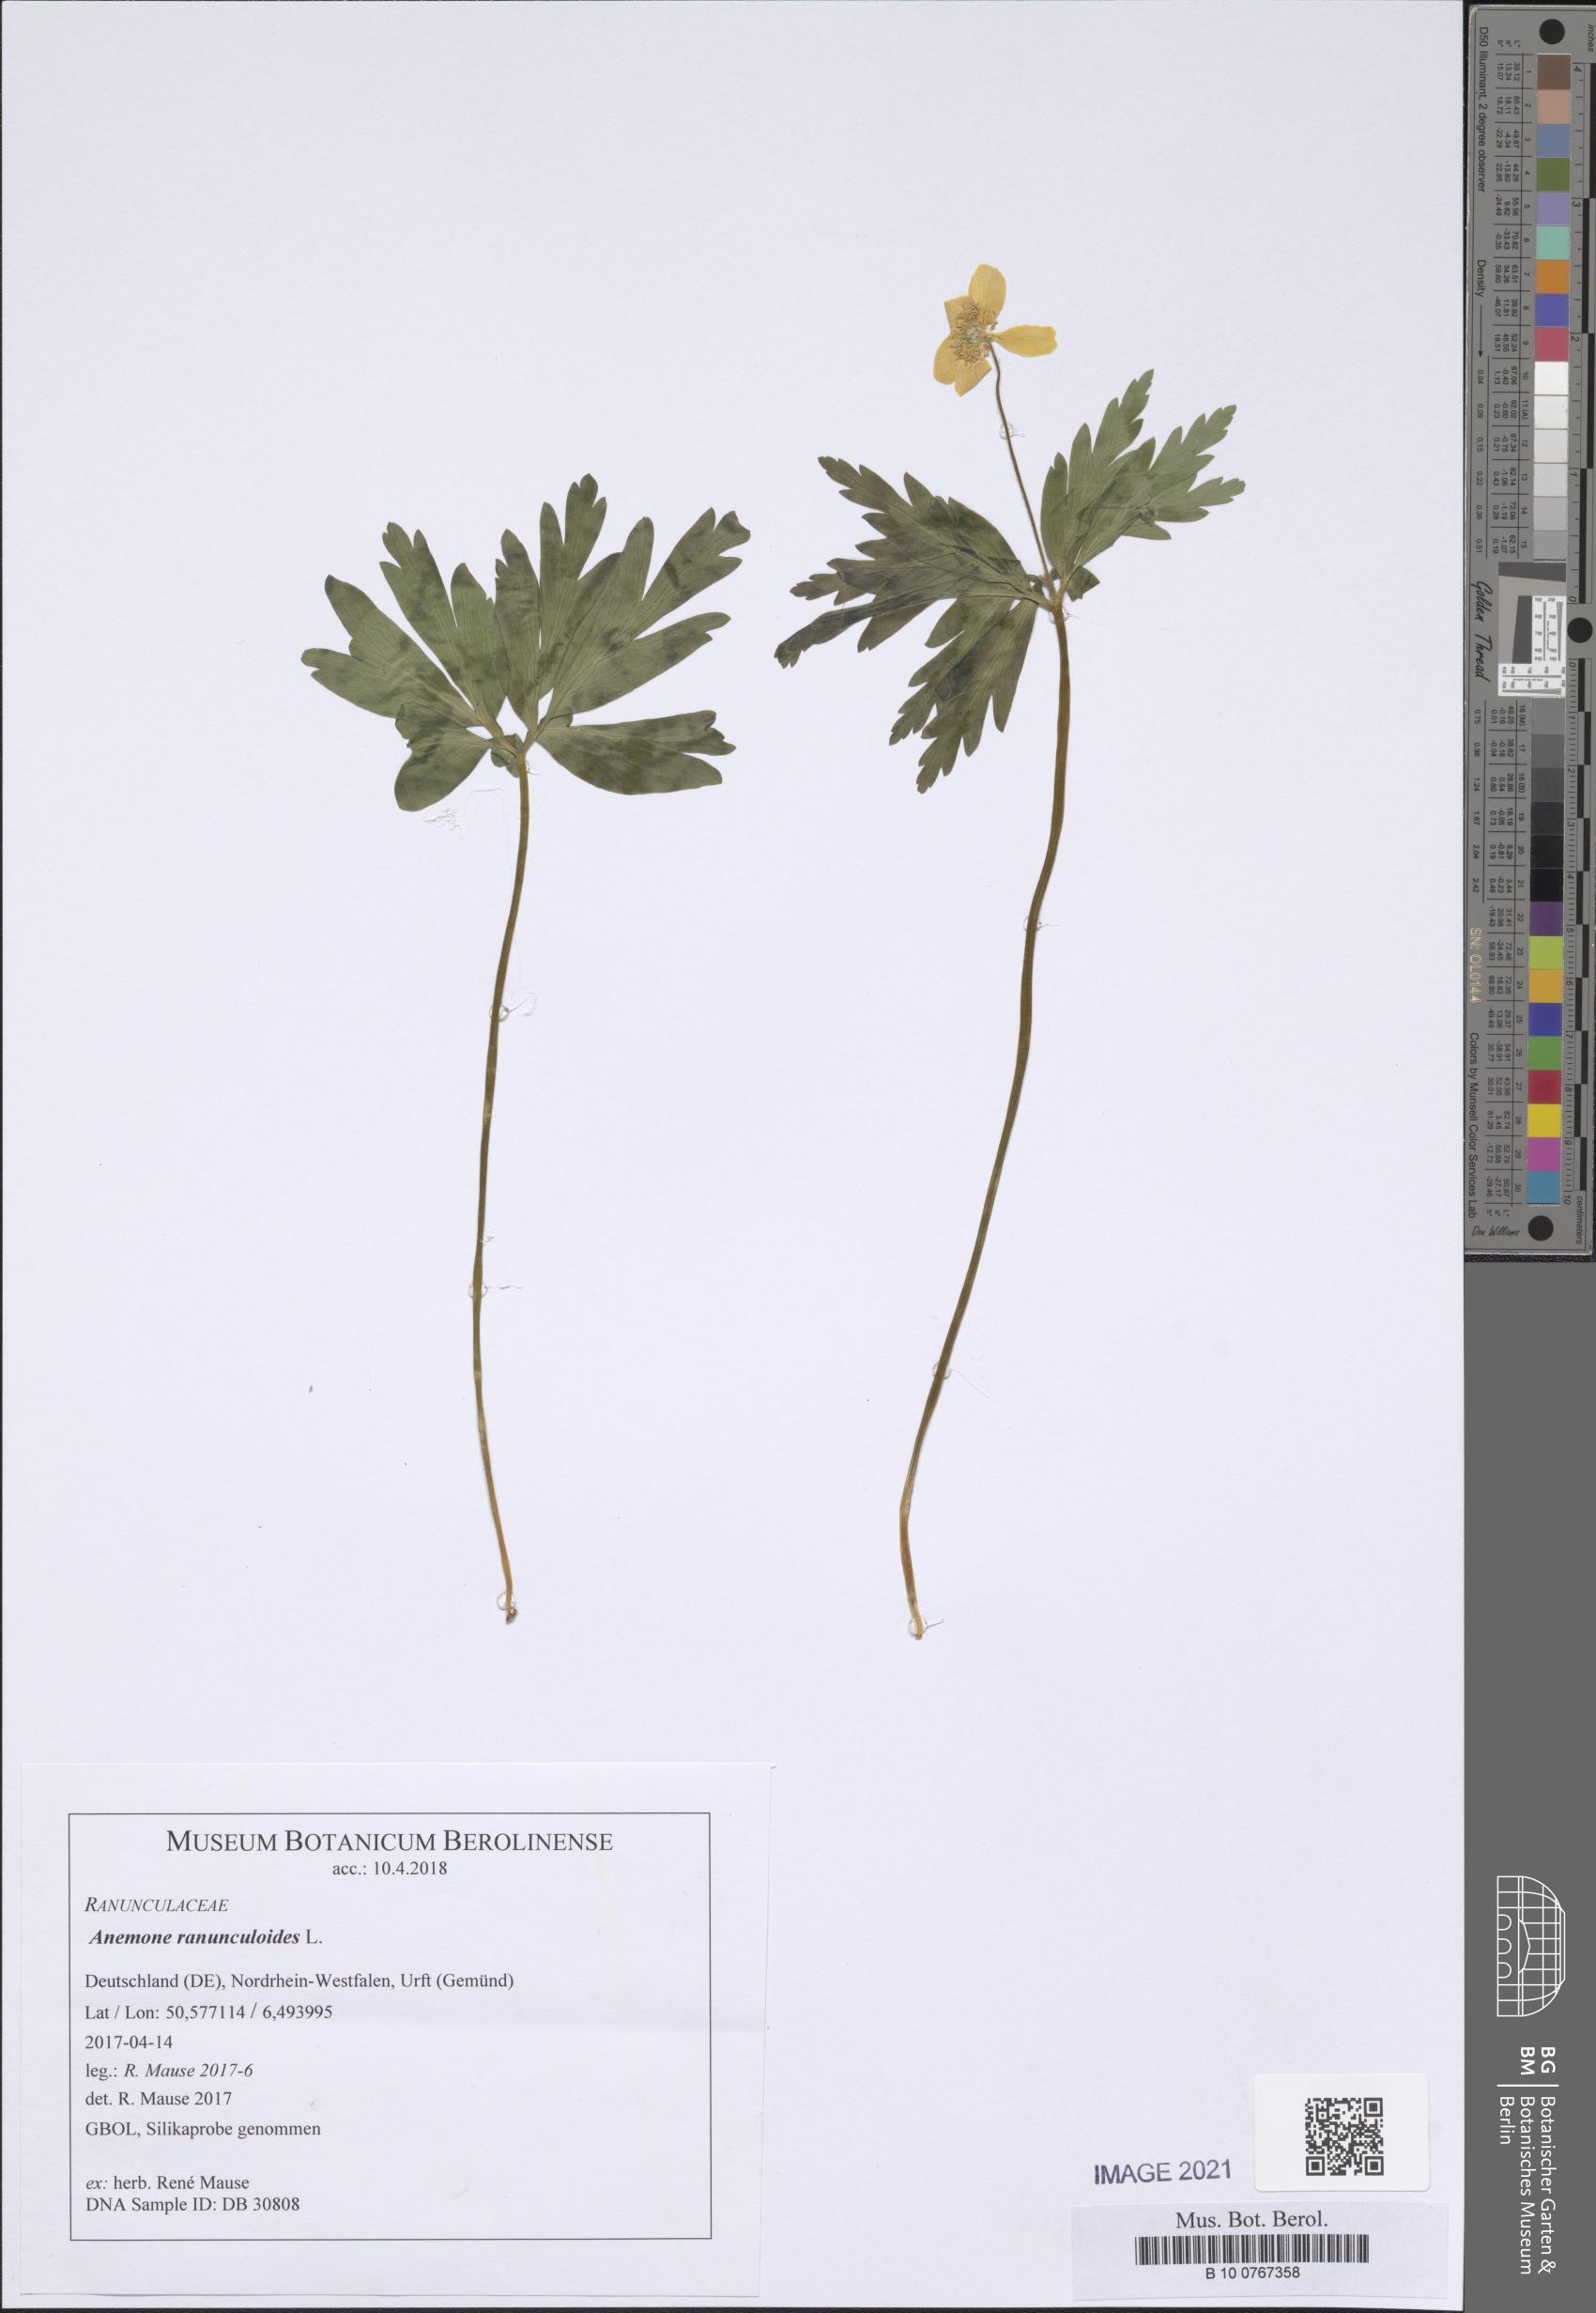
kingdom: Plantae
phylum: Tracheophyta
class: Magnoliopsida
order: Ranunculales
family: Ranunculaceae
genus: Anemone
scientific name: Anemone ranunculoides
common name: Yellow anemone
